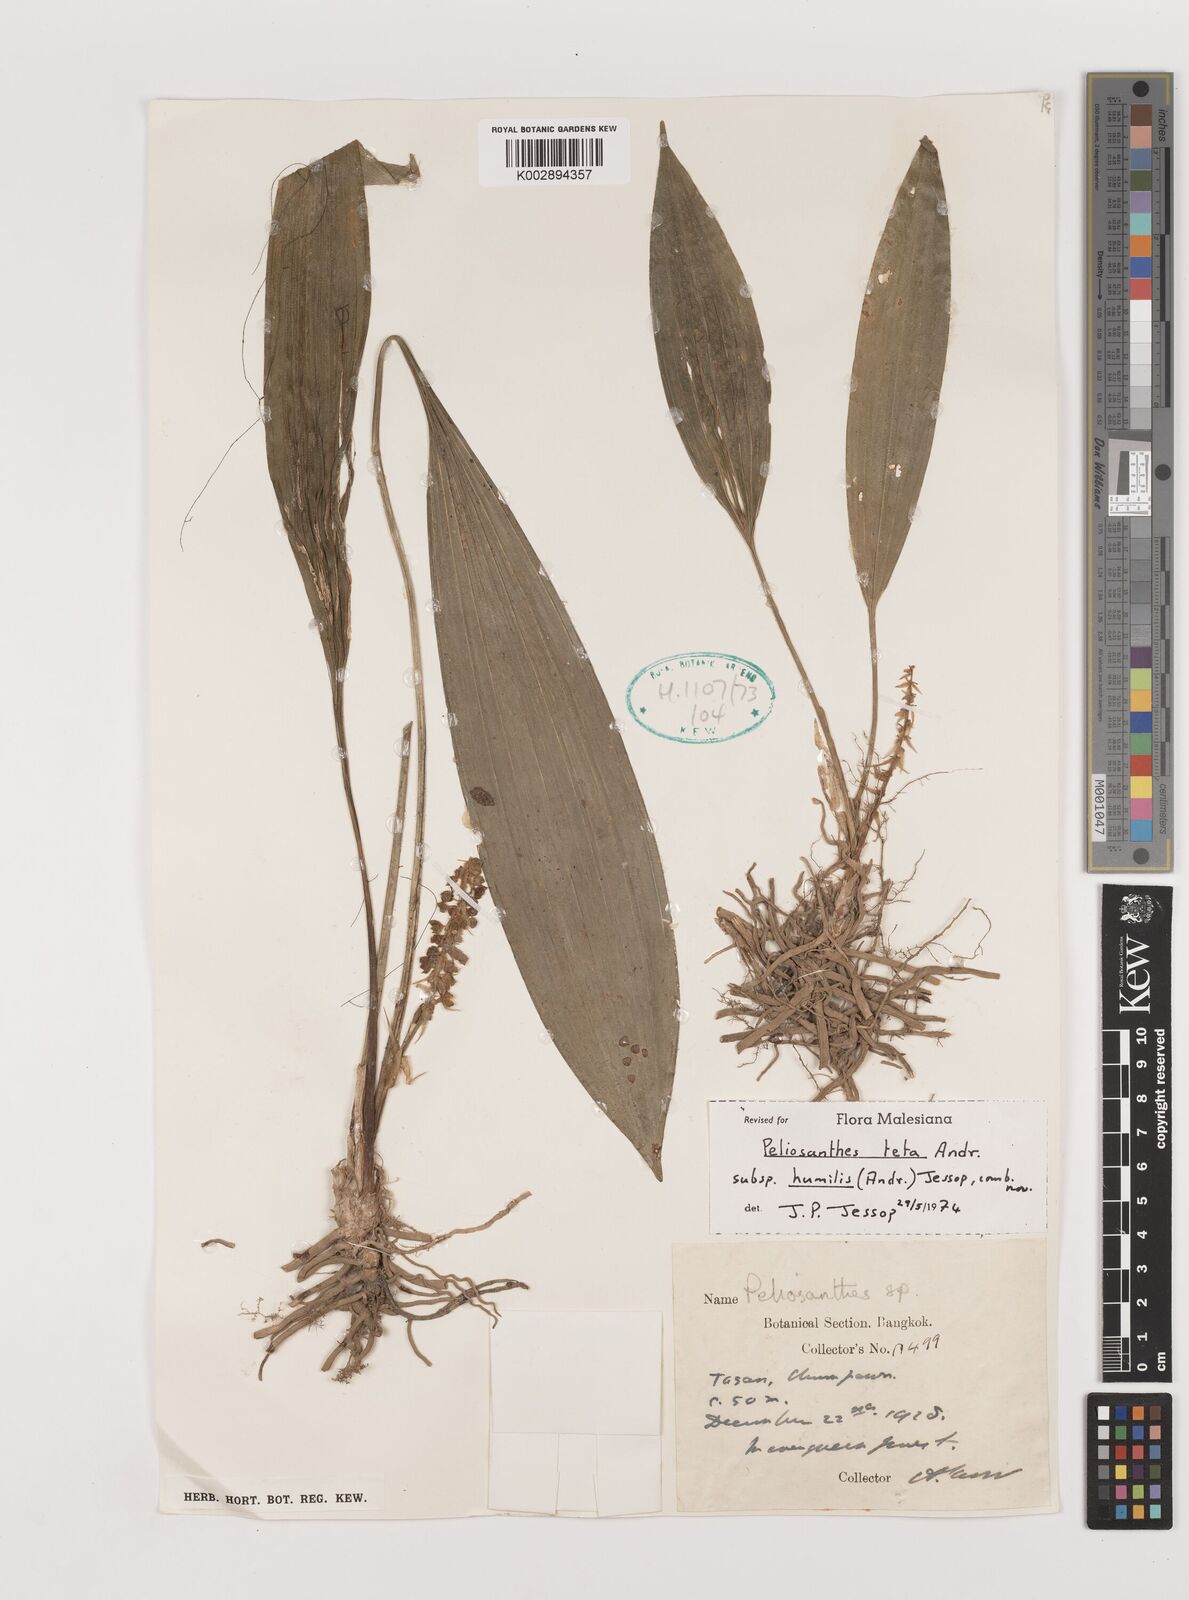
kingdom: Plantae
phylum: Tracheophyta
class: Liliopsida
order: Asparagales
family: Asparagaceae
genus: Peliosanthes
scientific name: Peliosanthes teta
